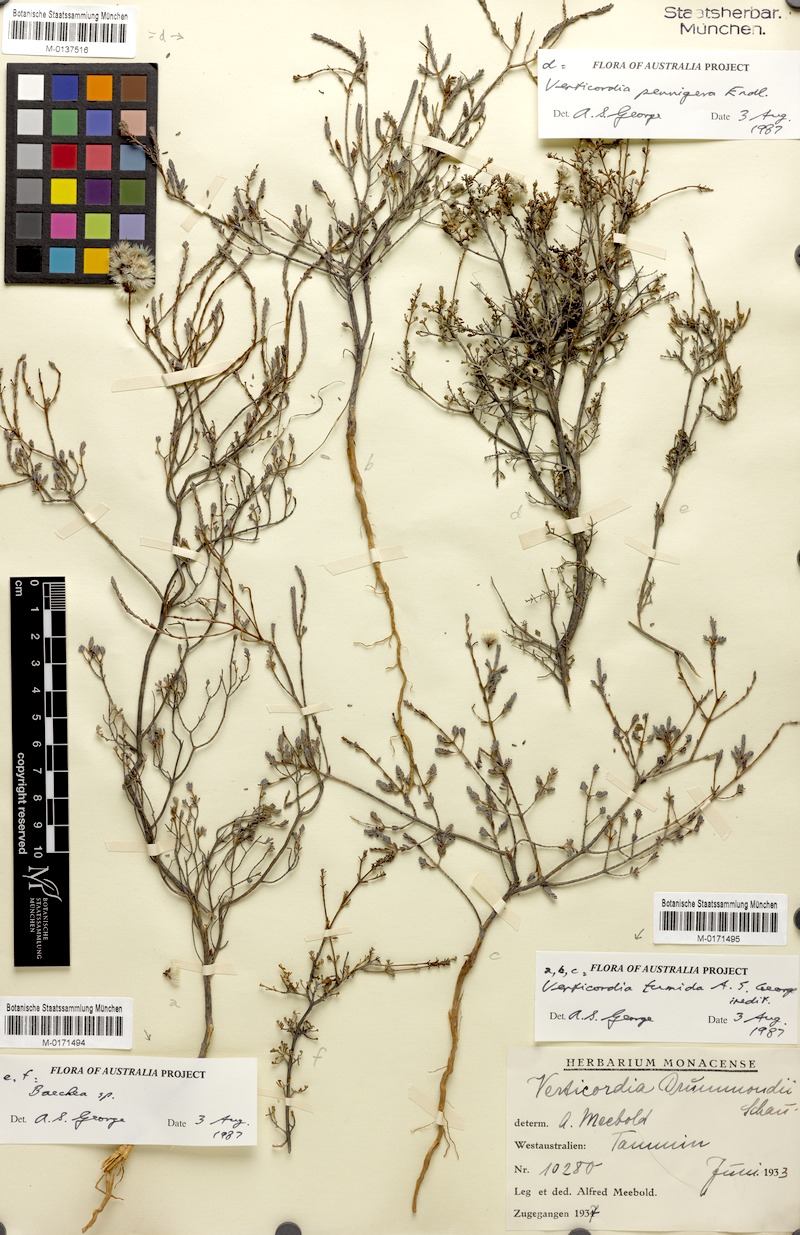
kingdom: Plantae
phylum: Tracheophyta
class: Magnoliopsida
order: Myrtales
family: Myrtaceae
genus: Verticordia
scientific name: Verticordia tumida
